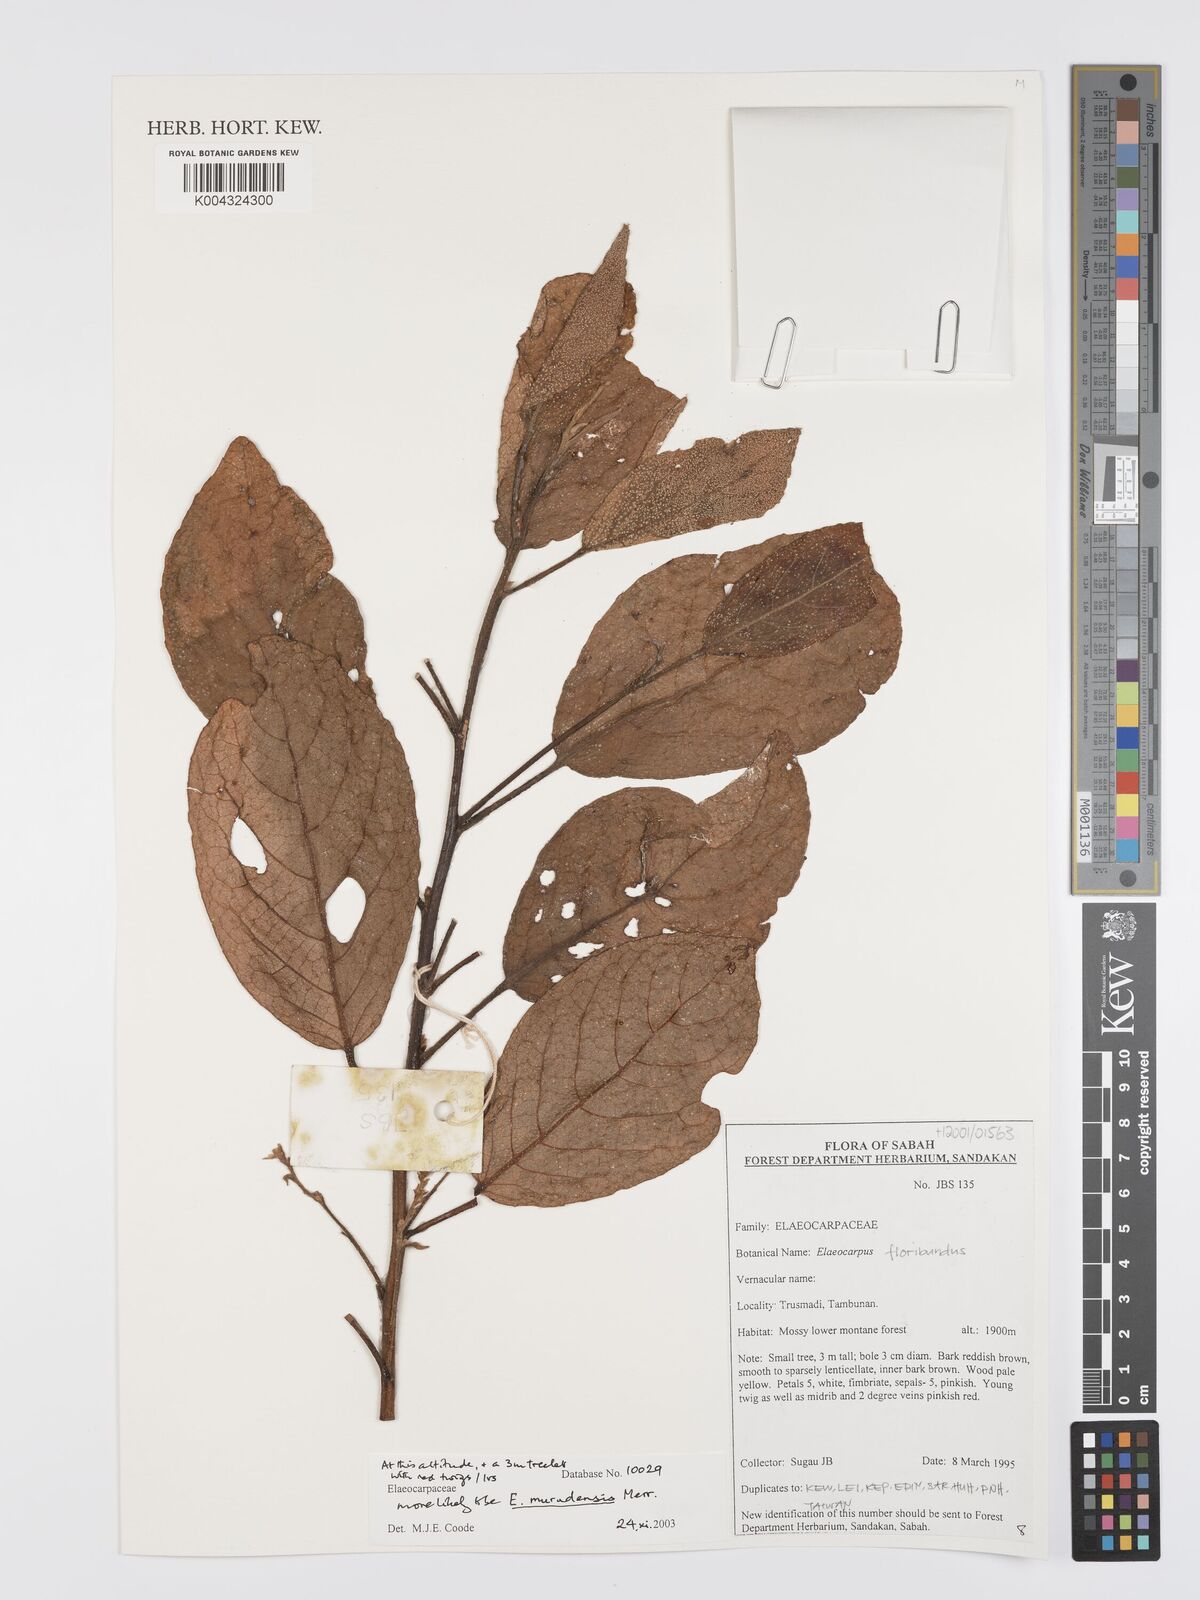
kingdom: Plantae
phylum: Tracheophyta
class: Magnoliopsida
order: Oxalidales
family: Elaeocarpaceae
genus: Elaeocarpus
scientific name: Elaeocarpus murudensis
